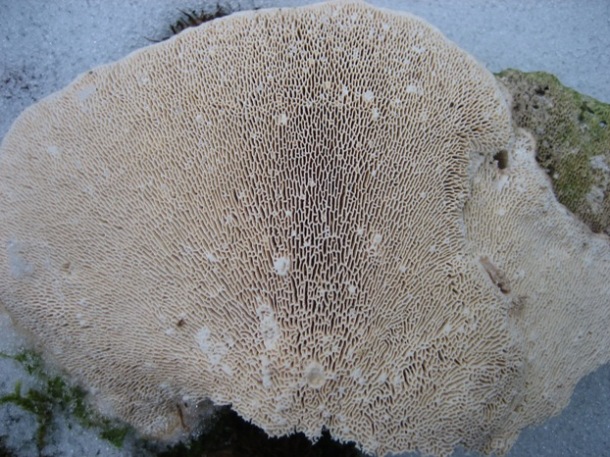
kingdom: Fungi
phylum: Basidiomycota
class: Agaricomycetes
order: Polyporales
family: Polyporaceae
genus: Trametes
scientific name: Trametes gibbosa
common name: puklet læderporesvamp
